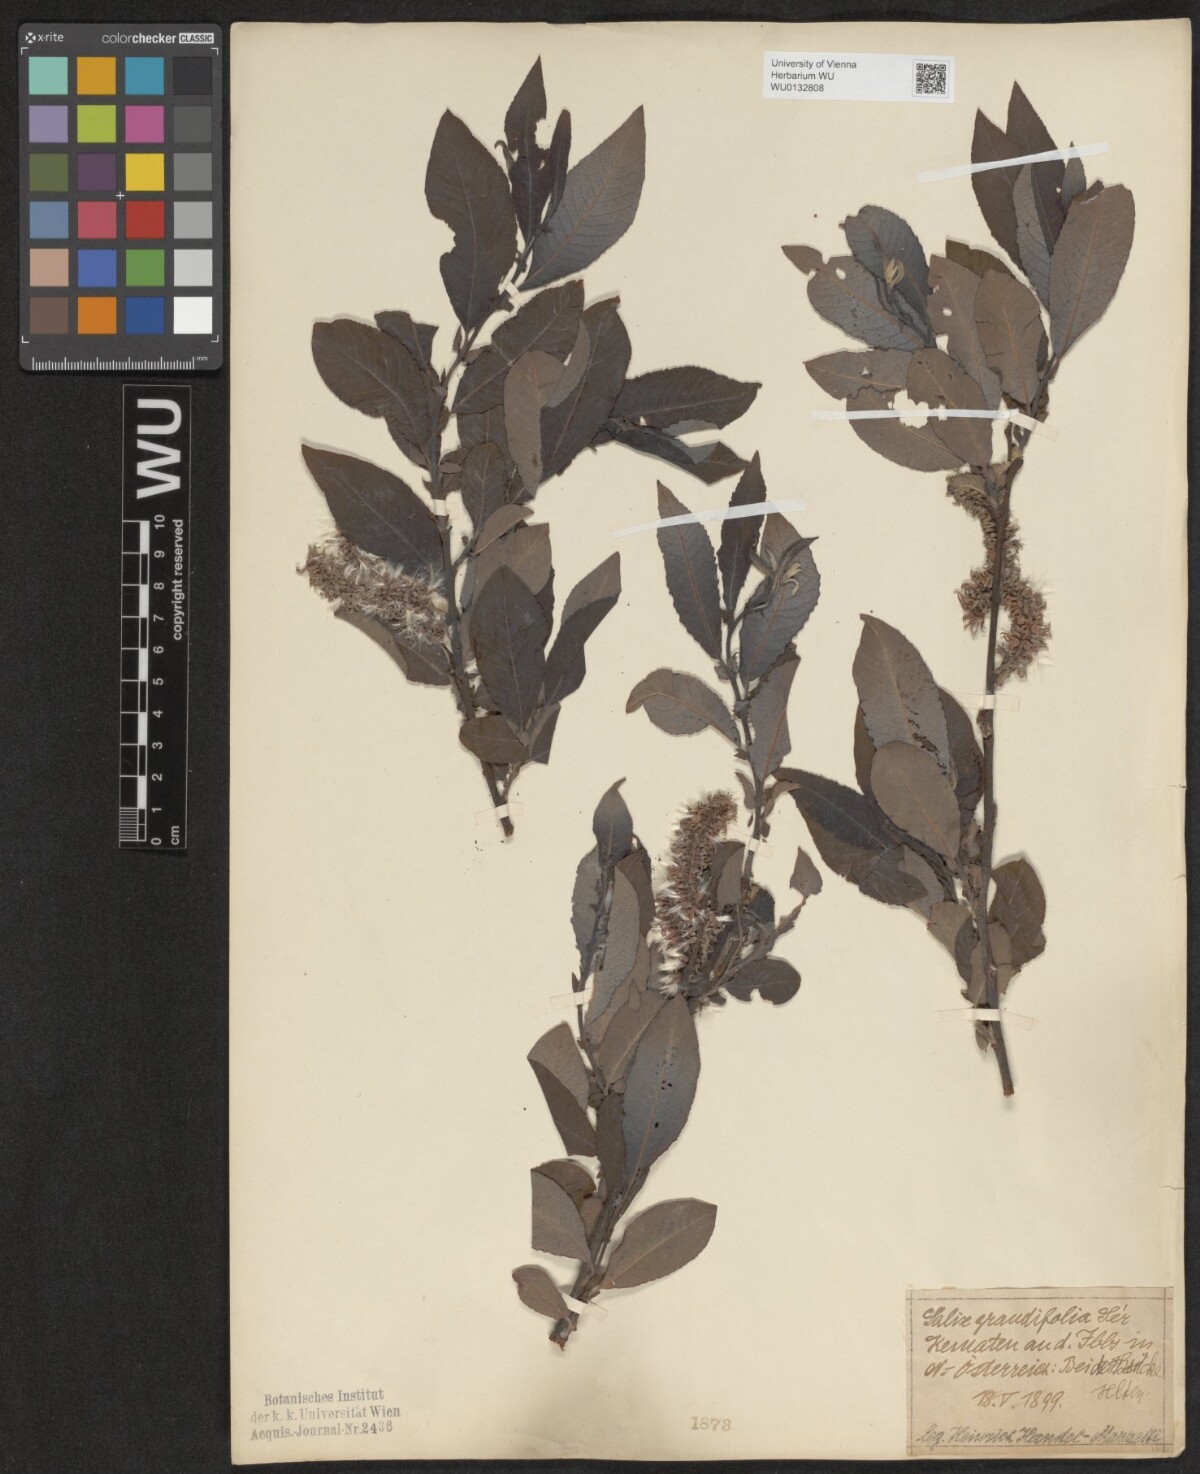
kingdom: Plantae
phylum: Tracheophyta
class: Magnoliopsida
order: Malpighiales
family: Salicaceae
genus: Salix
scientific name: Salix appendiculata
